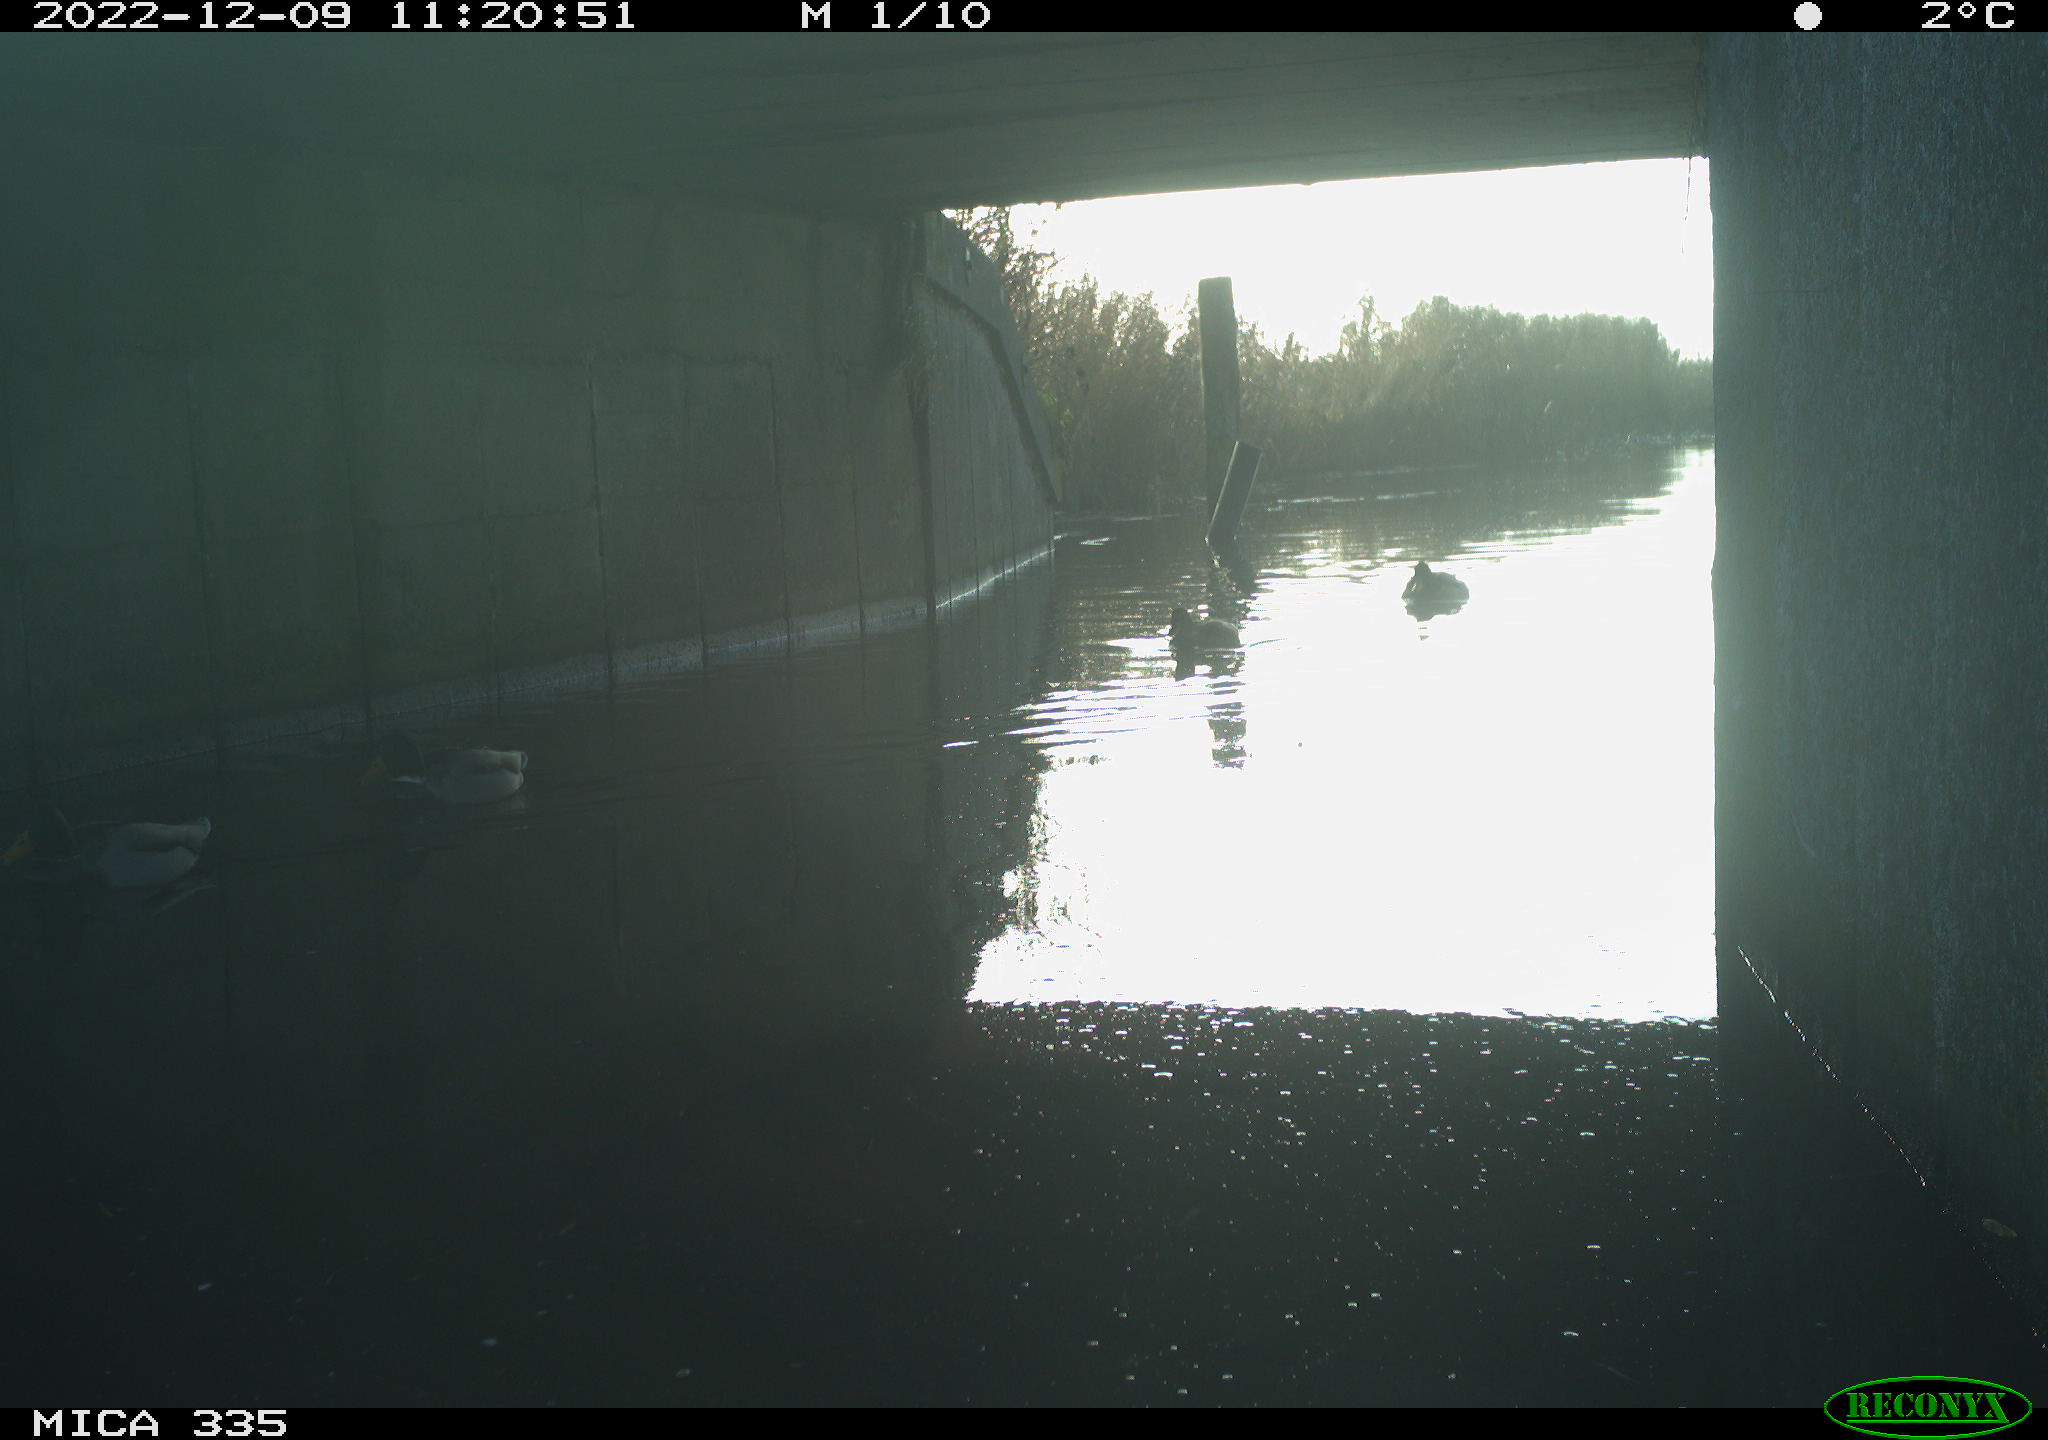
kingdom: Animalia
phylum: Chordata
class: Aves
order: Anseriformes
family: Anatidae
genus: Anas
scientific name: Anas
